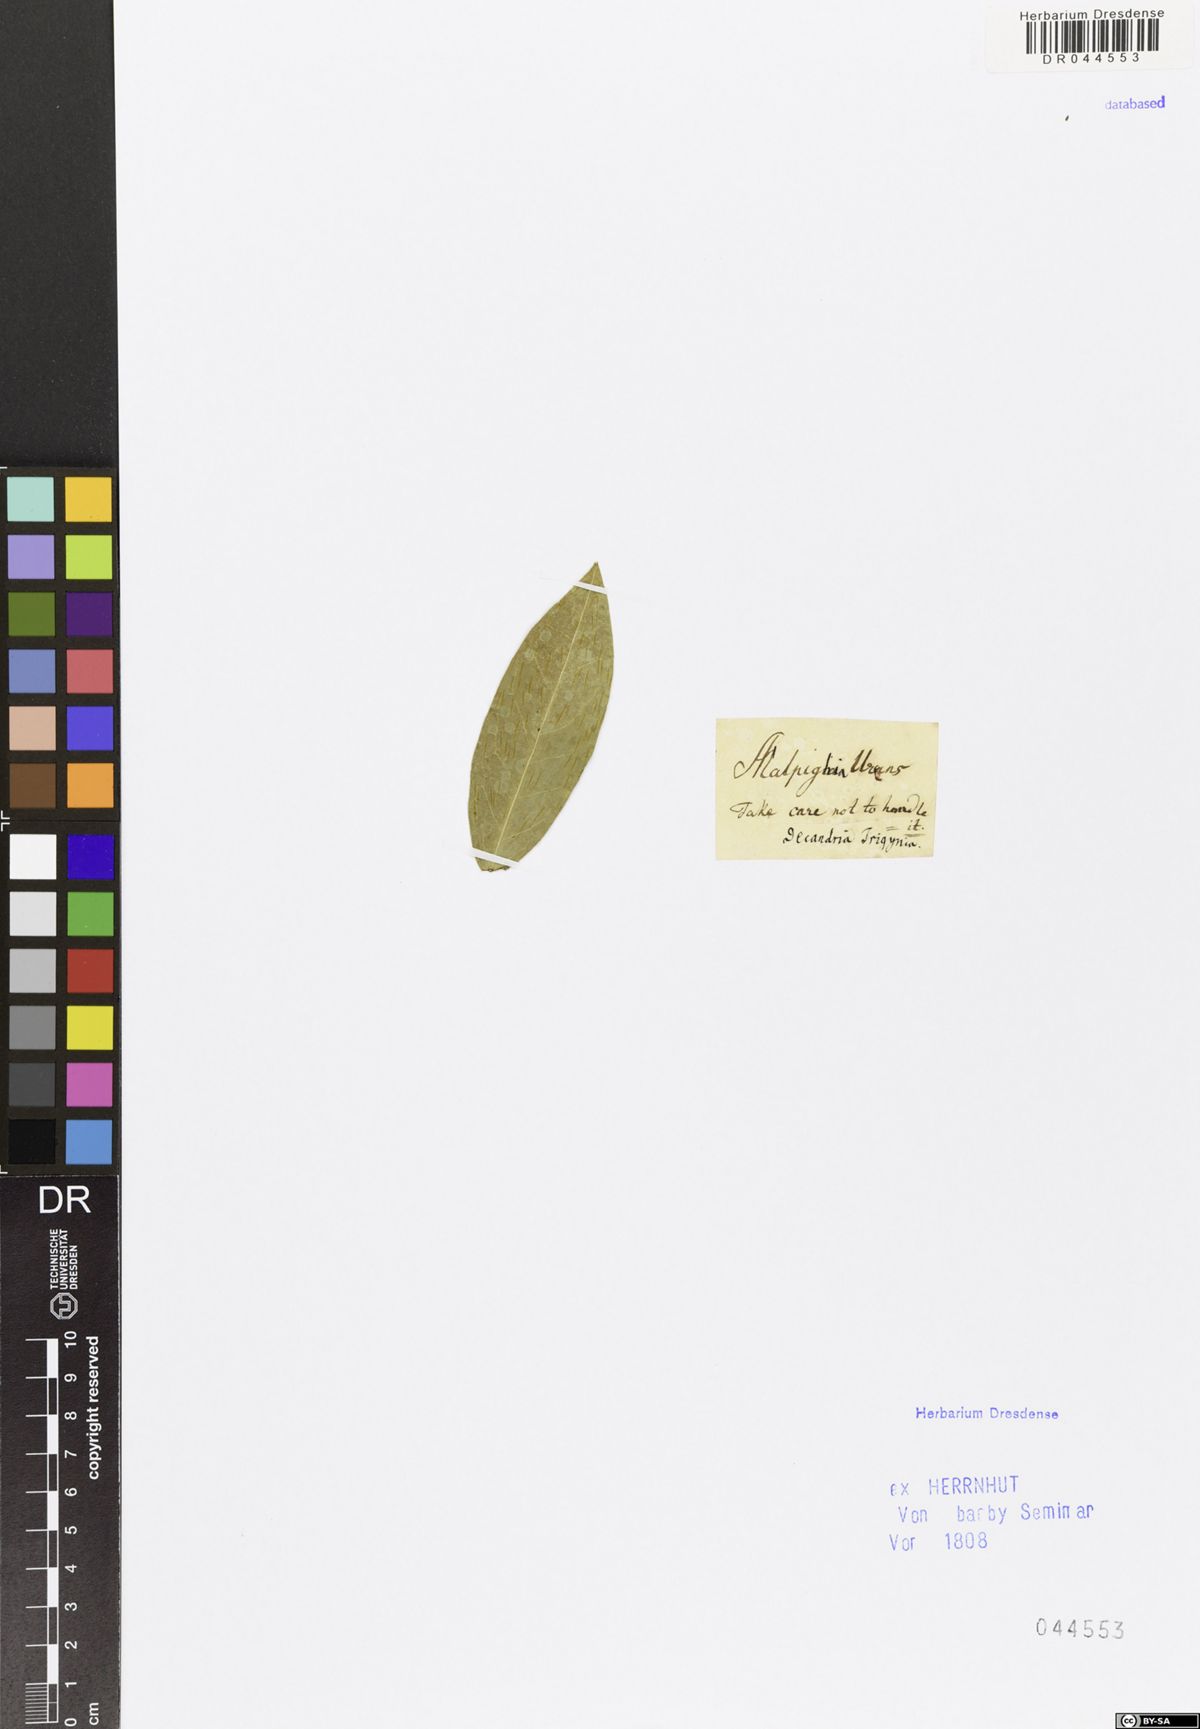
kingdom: Plantae
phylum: Tracheophyta
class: Magnoliopsida
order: Malpighiales
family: Malpighiaceae
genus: Malpighia
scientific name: Malpighia
